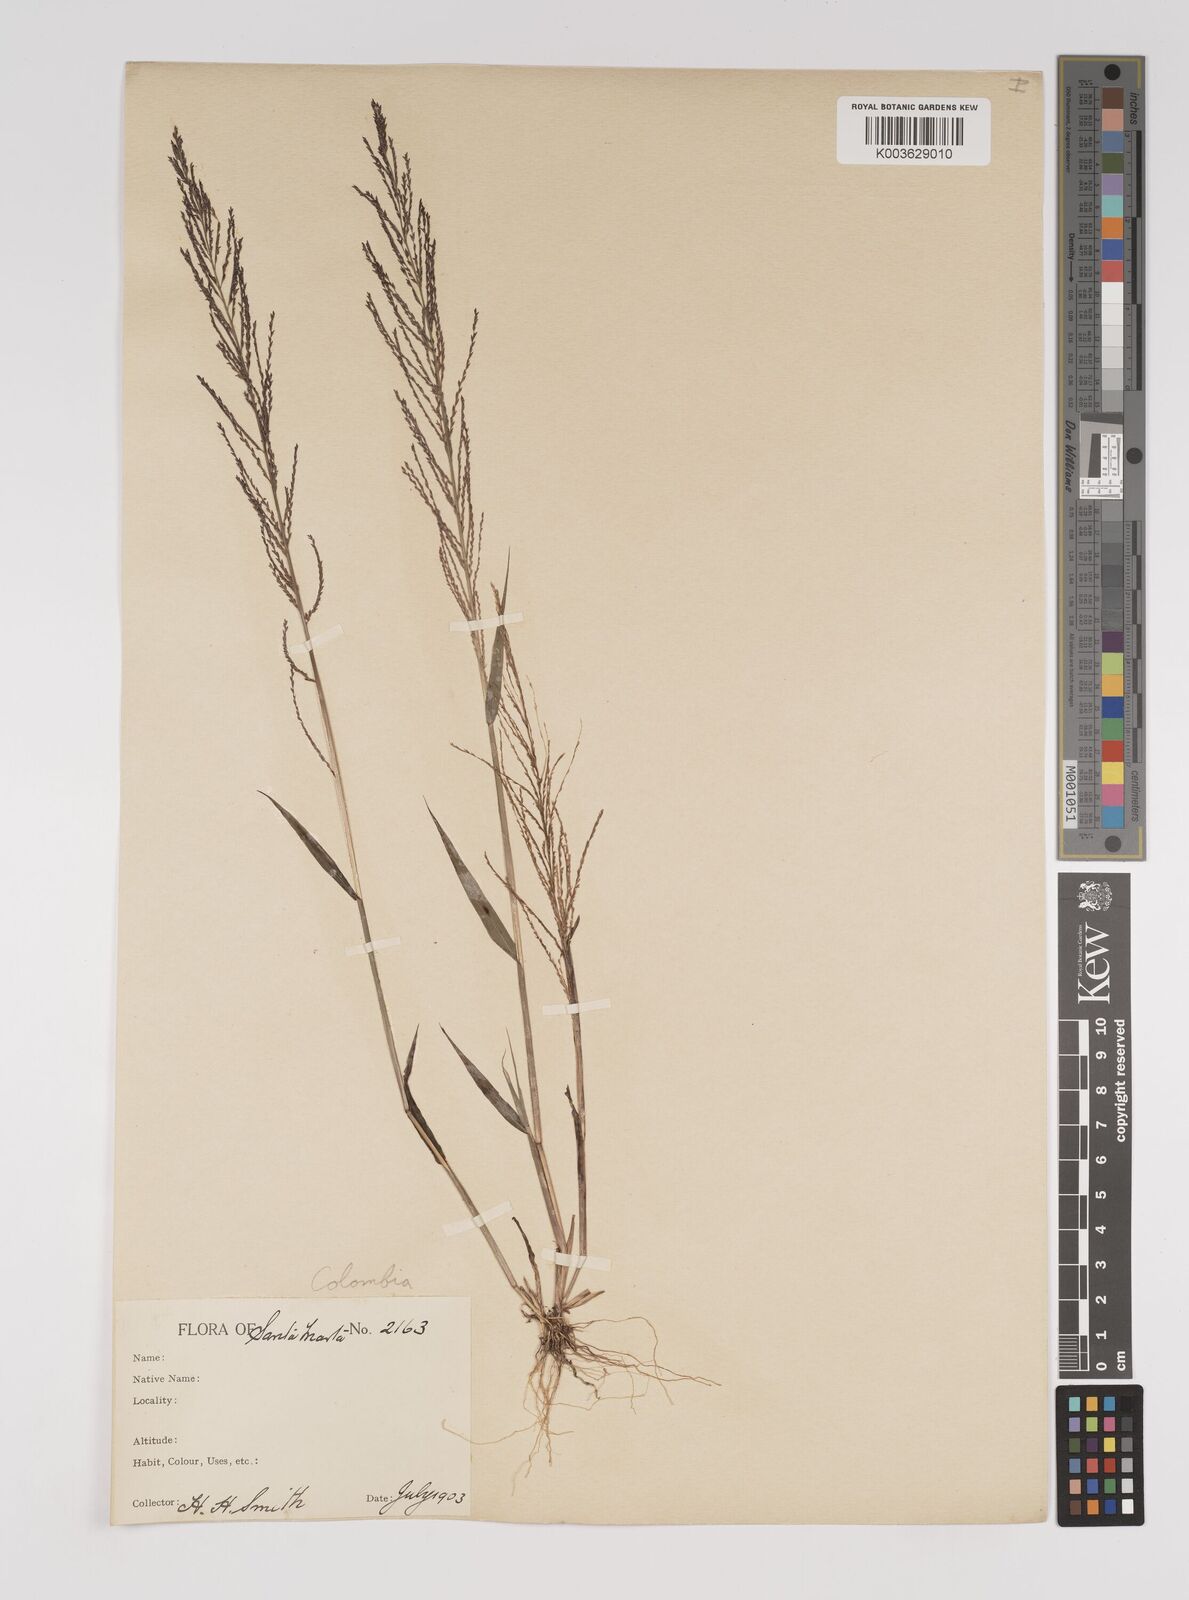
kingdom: Plantae
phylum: Tracheophyta
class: Liliopsida
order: Poales
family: Poaceae
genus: Leptochloa
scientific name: Leptochloa panicea
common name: Mucronate sprangletop
